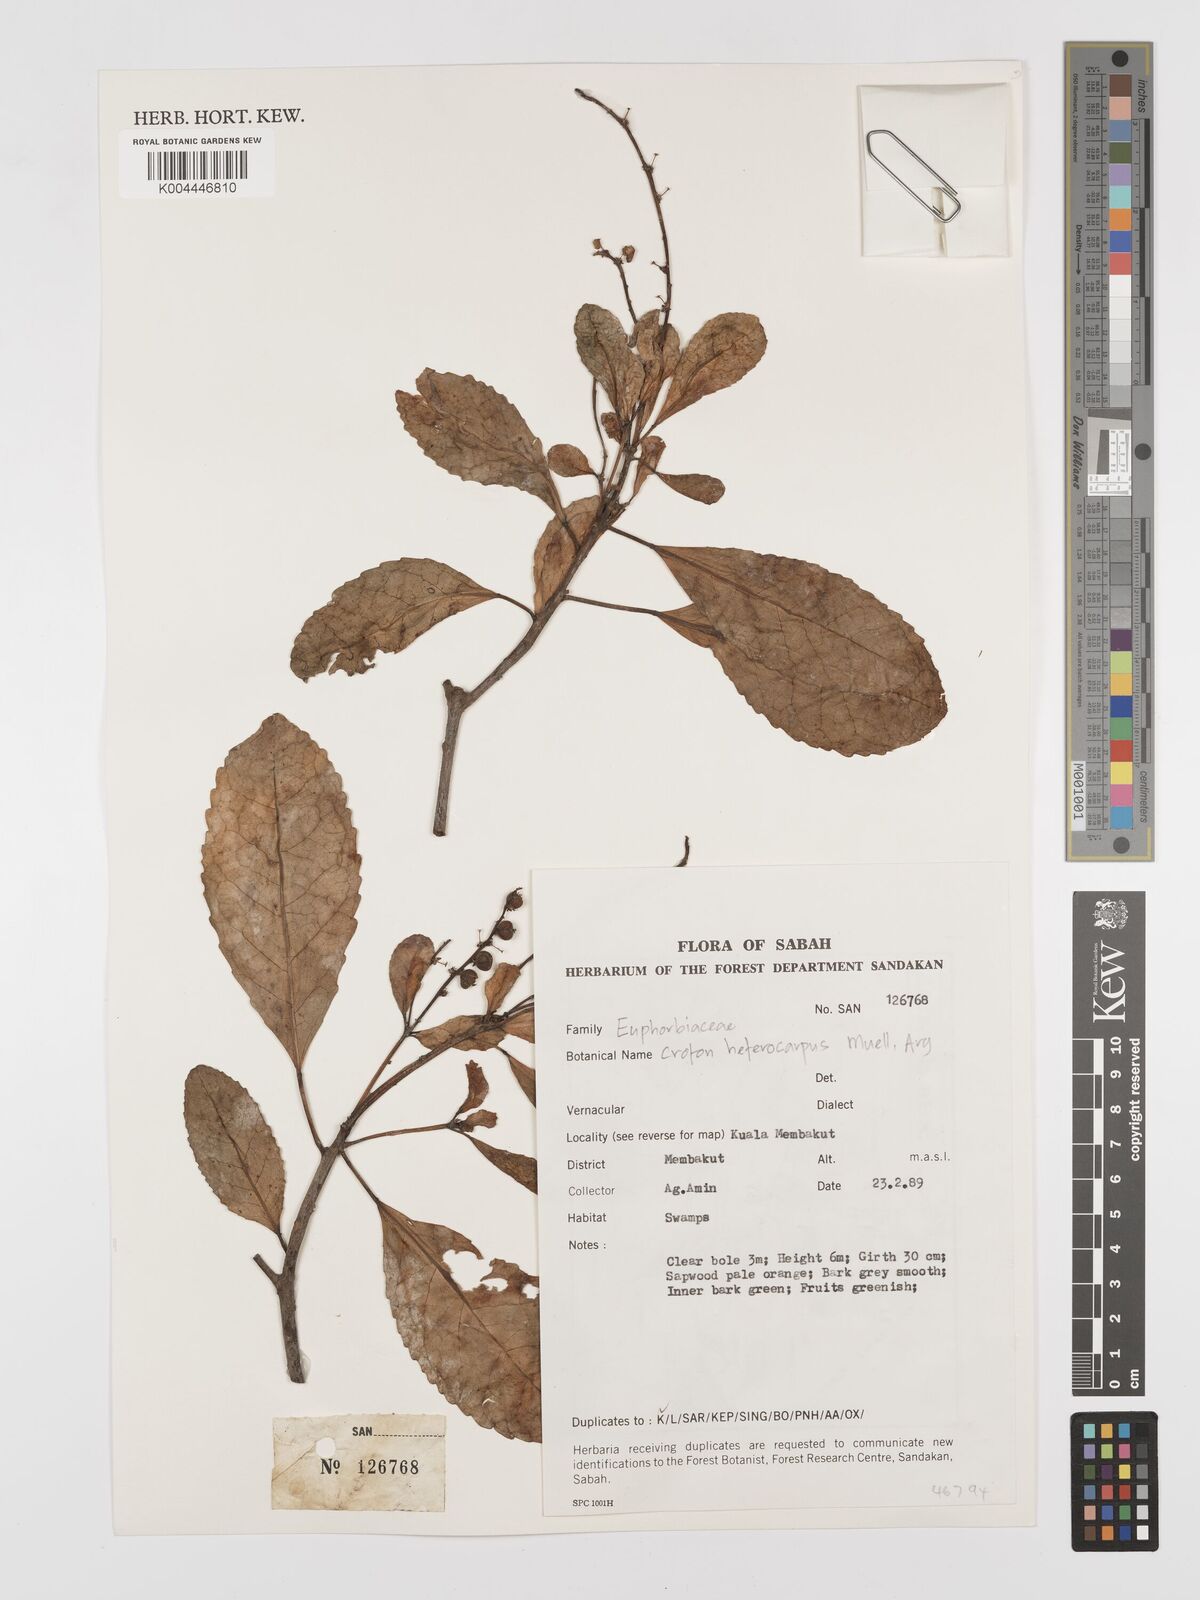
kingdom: Plantae
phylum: Tracheophyta
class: Magnoliopsida
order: Malpighiales
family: Euphorbiaceae
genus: Croton
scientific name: Croton heterocarpus
